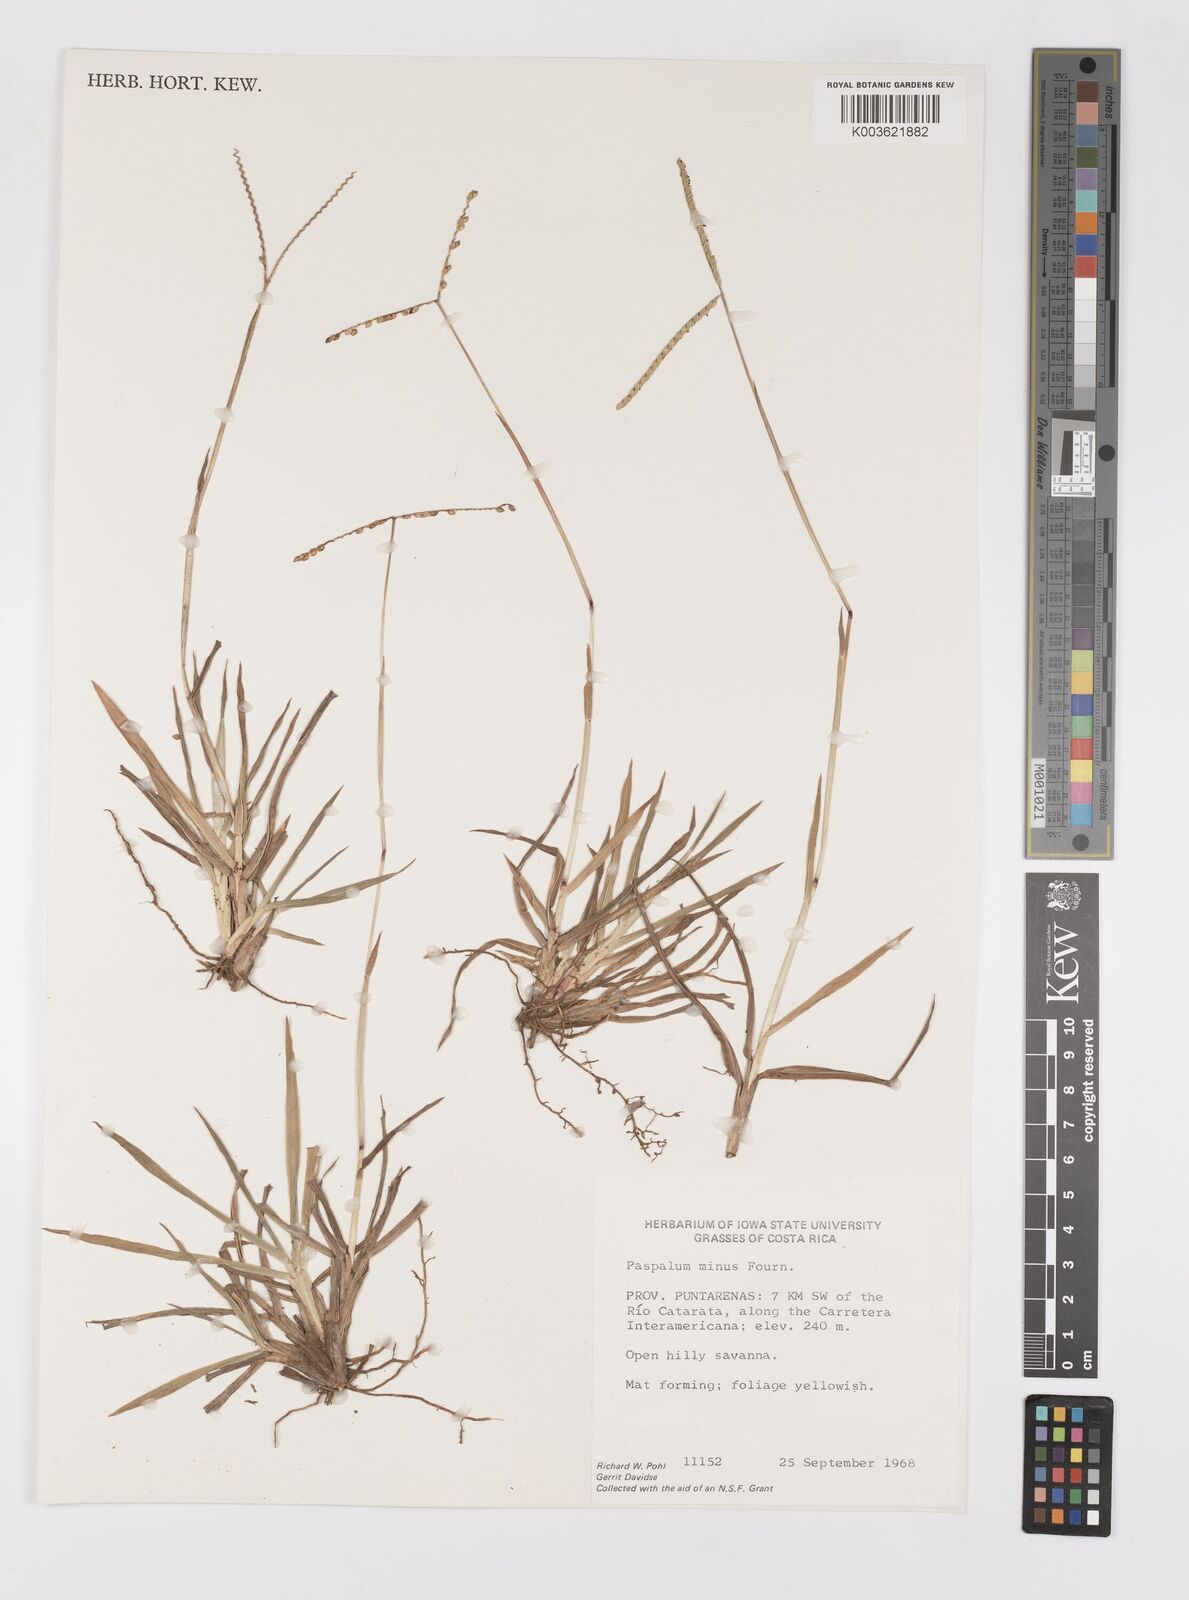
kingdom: Plantae
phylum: Tracheophyta
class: Liliopsida
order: Poales
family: Poaceae
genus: Paspalum
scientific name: Paspalum minus
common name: Matted paspalum
